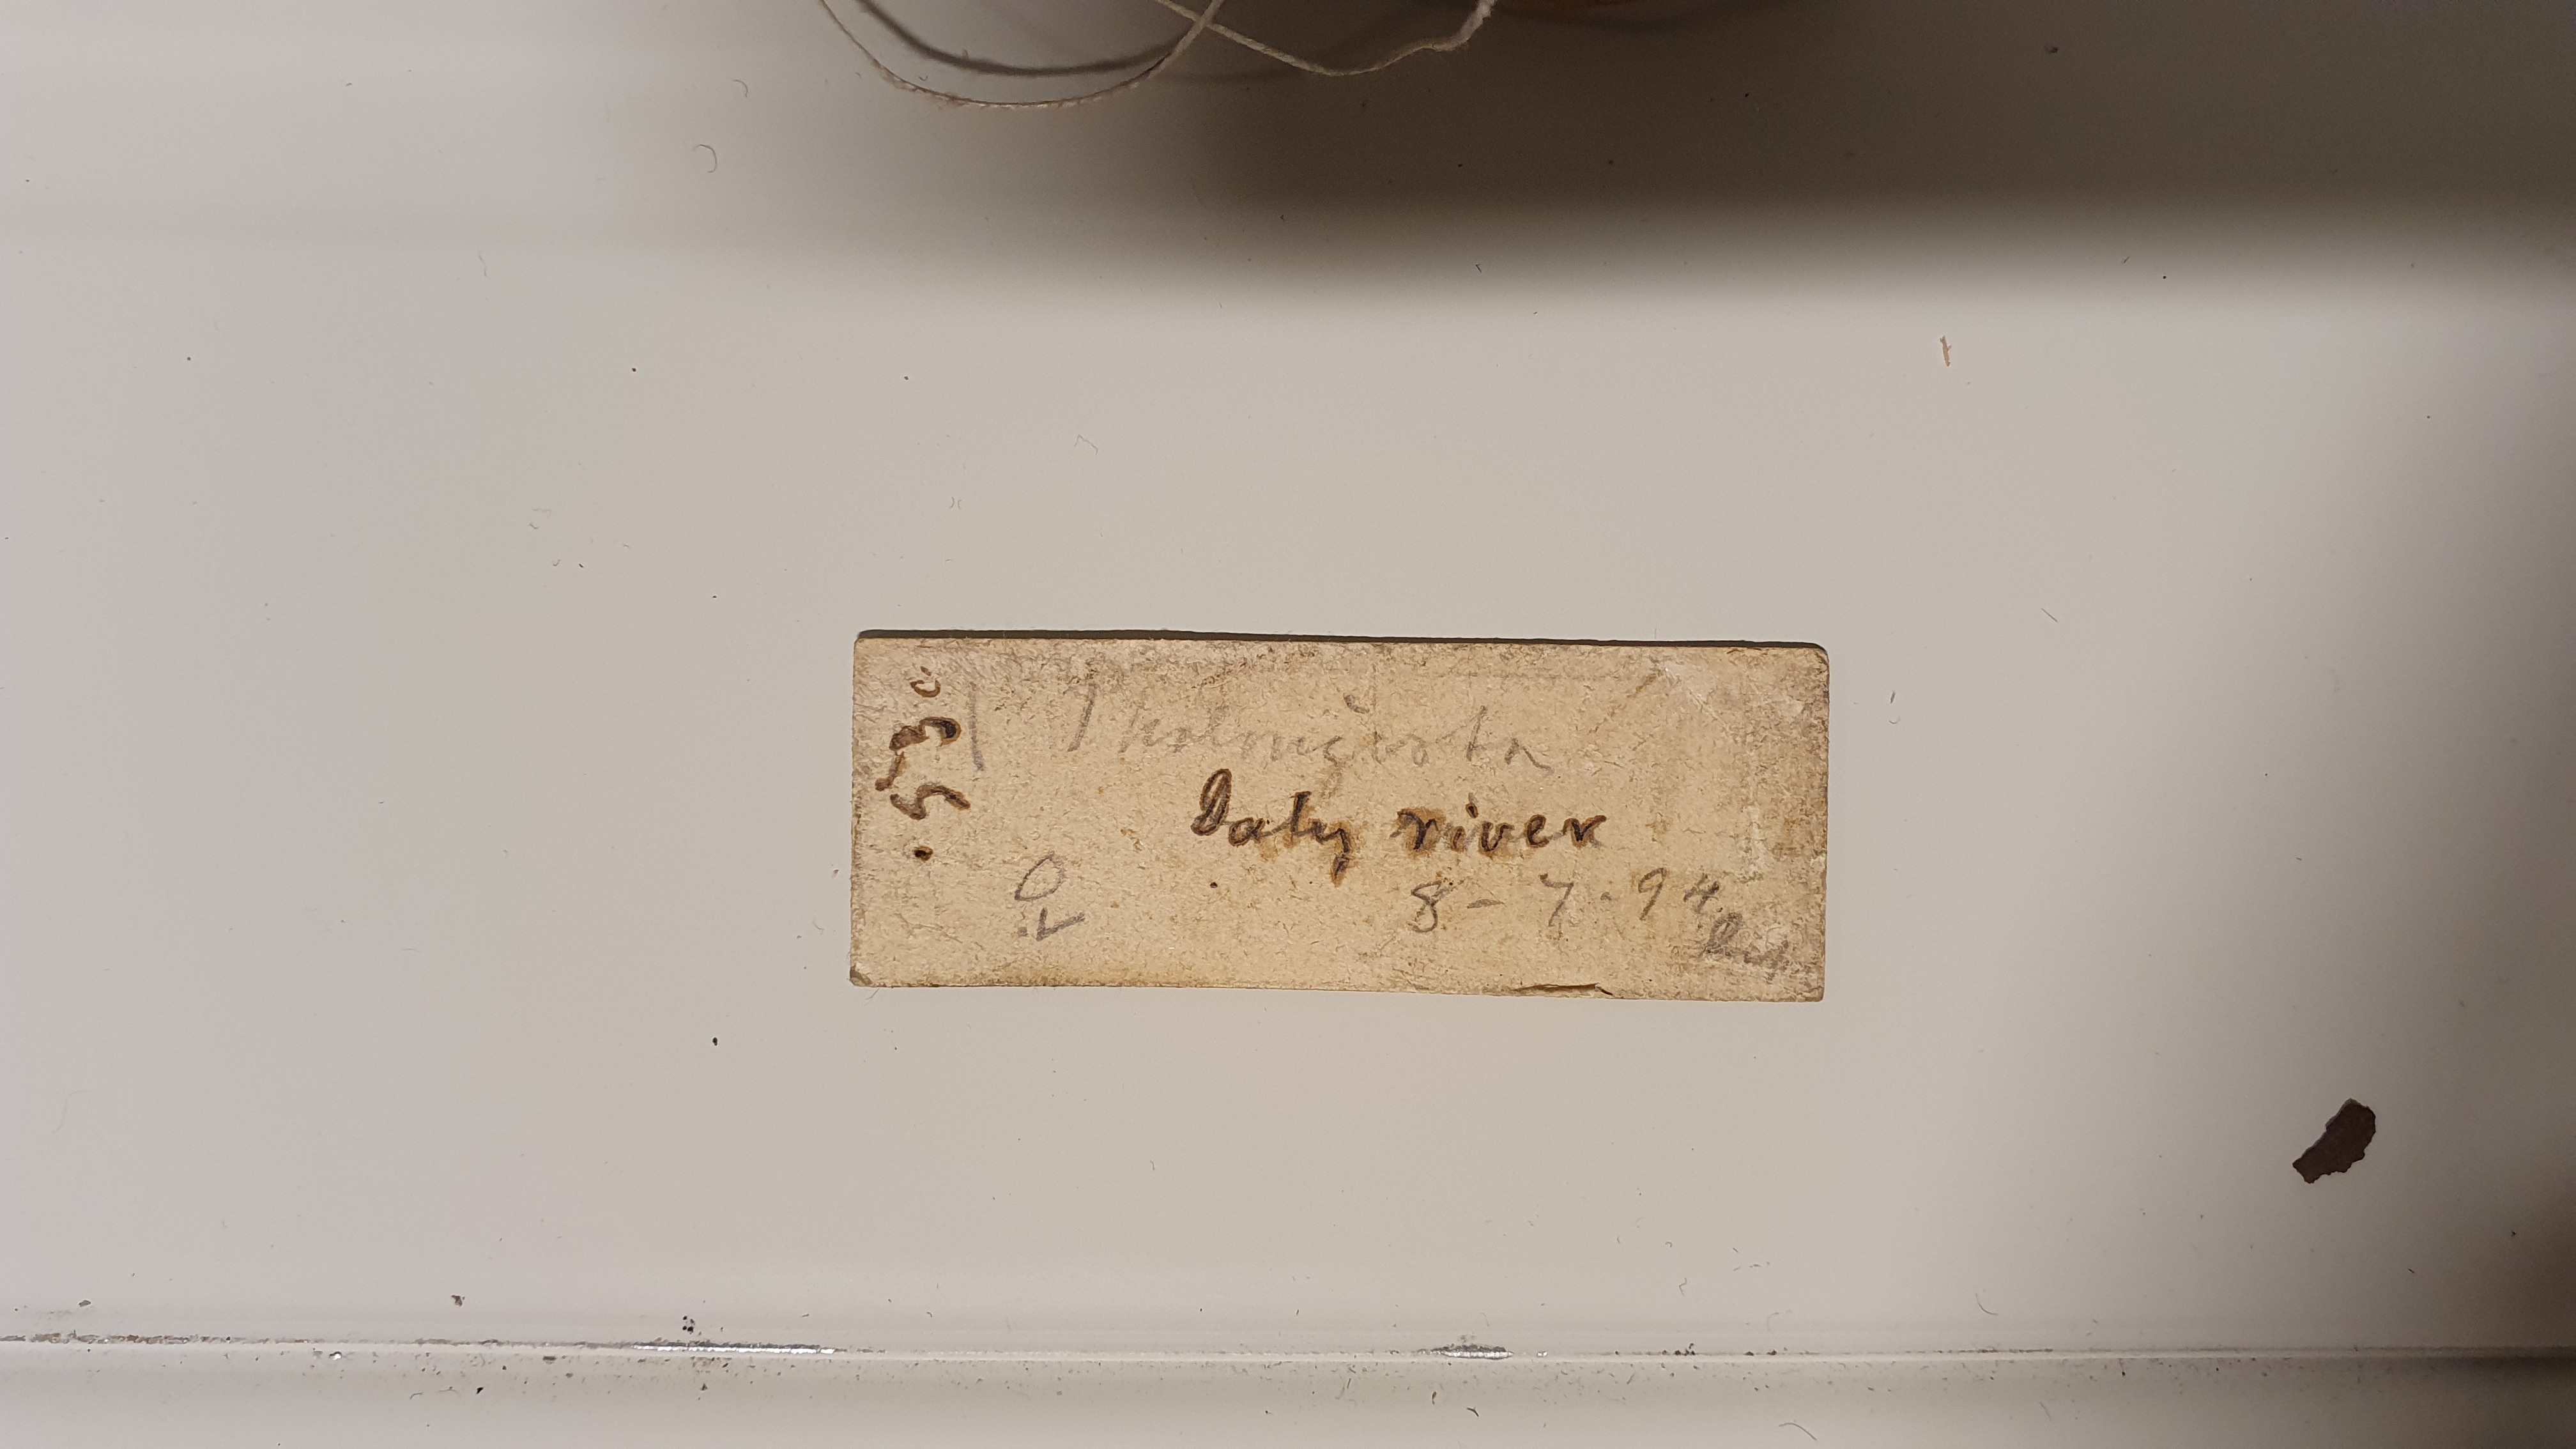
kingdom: Animalia
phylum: Chordata
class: Mammalia
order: Diprotodontia
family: Phalangeridae
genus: Trichosurus
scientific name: Trichosurus arnhemensis
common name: Northern brushtail
